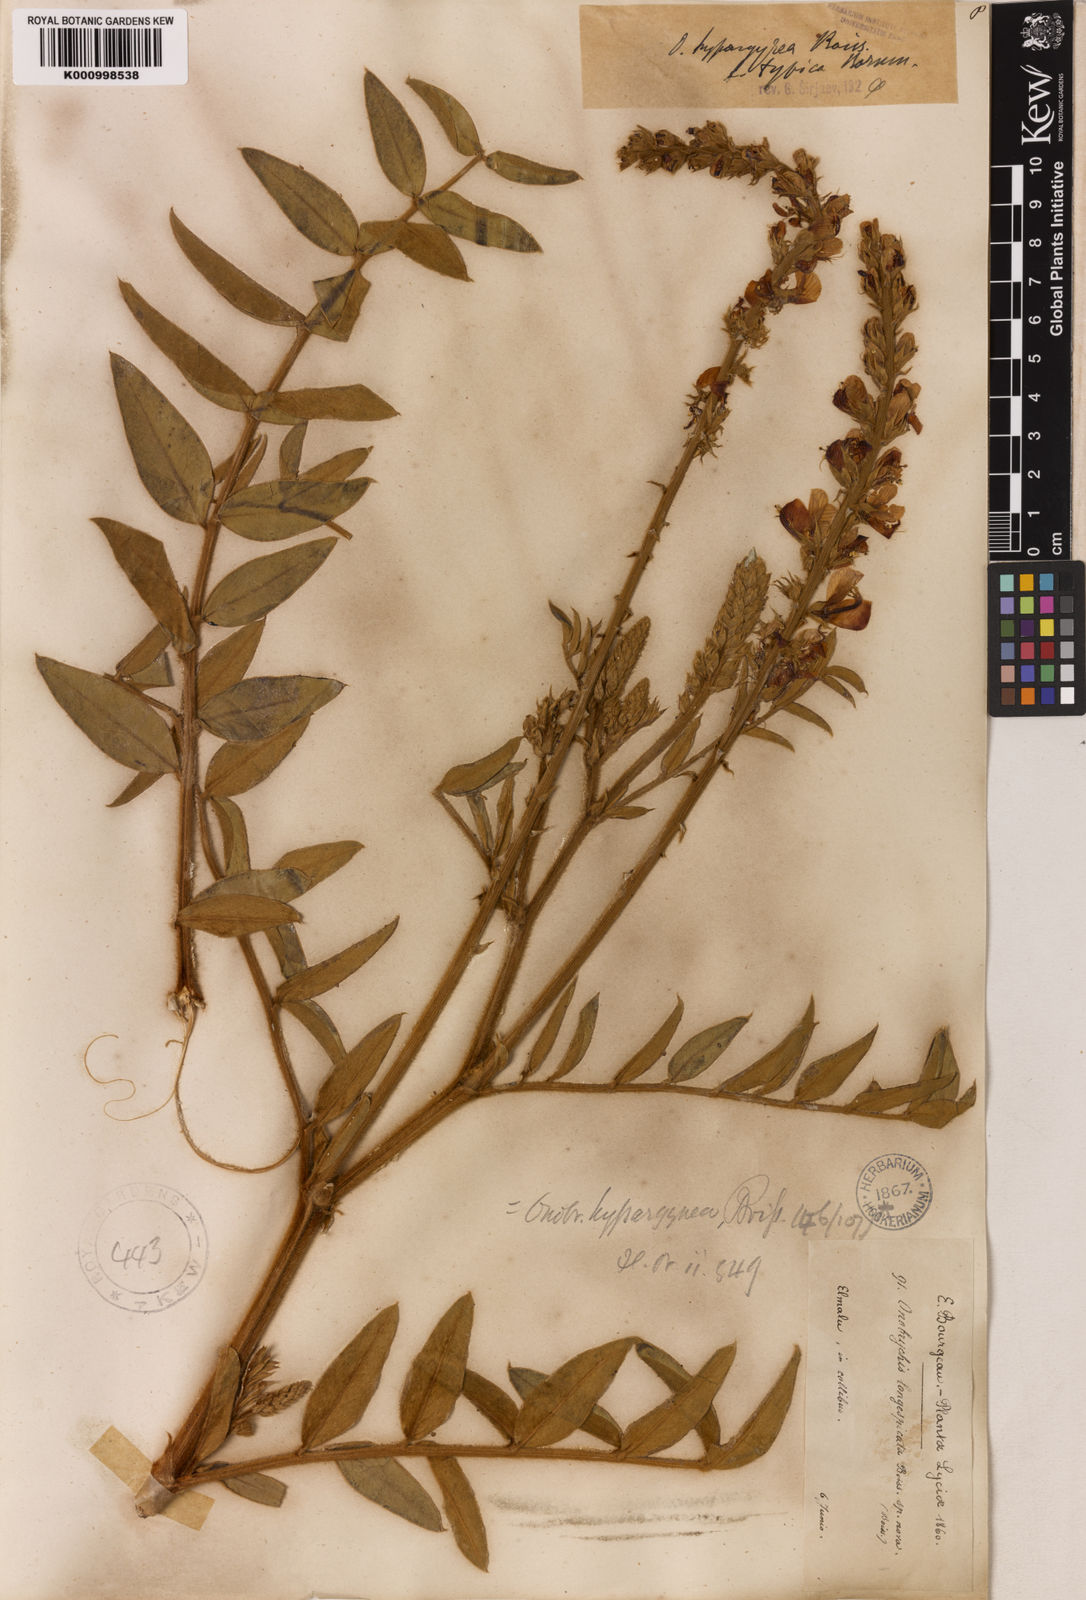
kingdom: Plantae
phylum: Tracheophyta
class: Magnoliopsida
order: Fabales
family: Fabaceae
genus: Onobrychis
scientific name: Onobrychis hypargyrea
